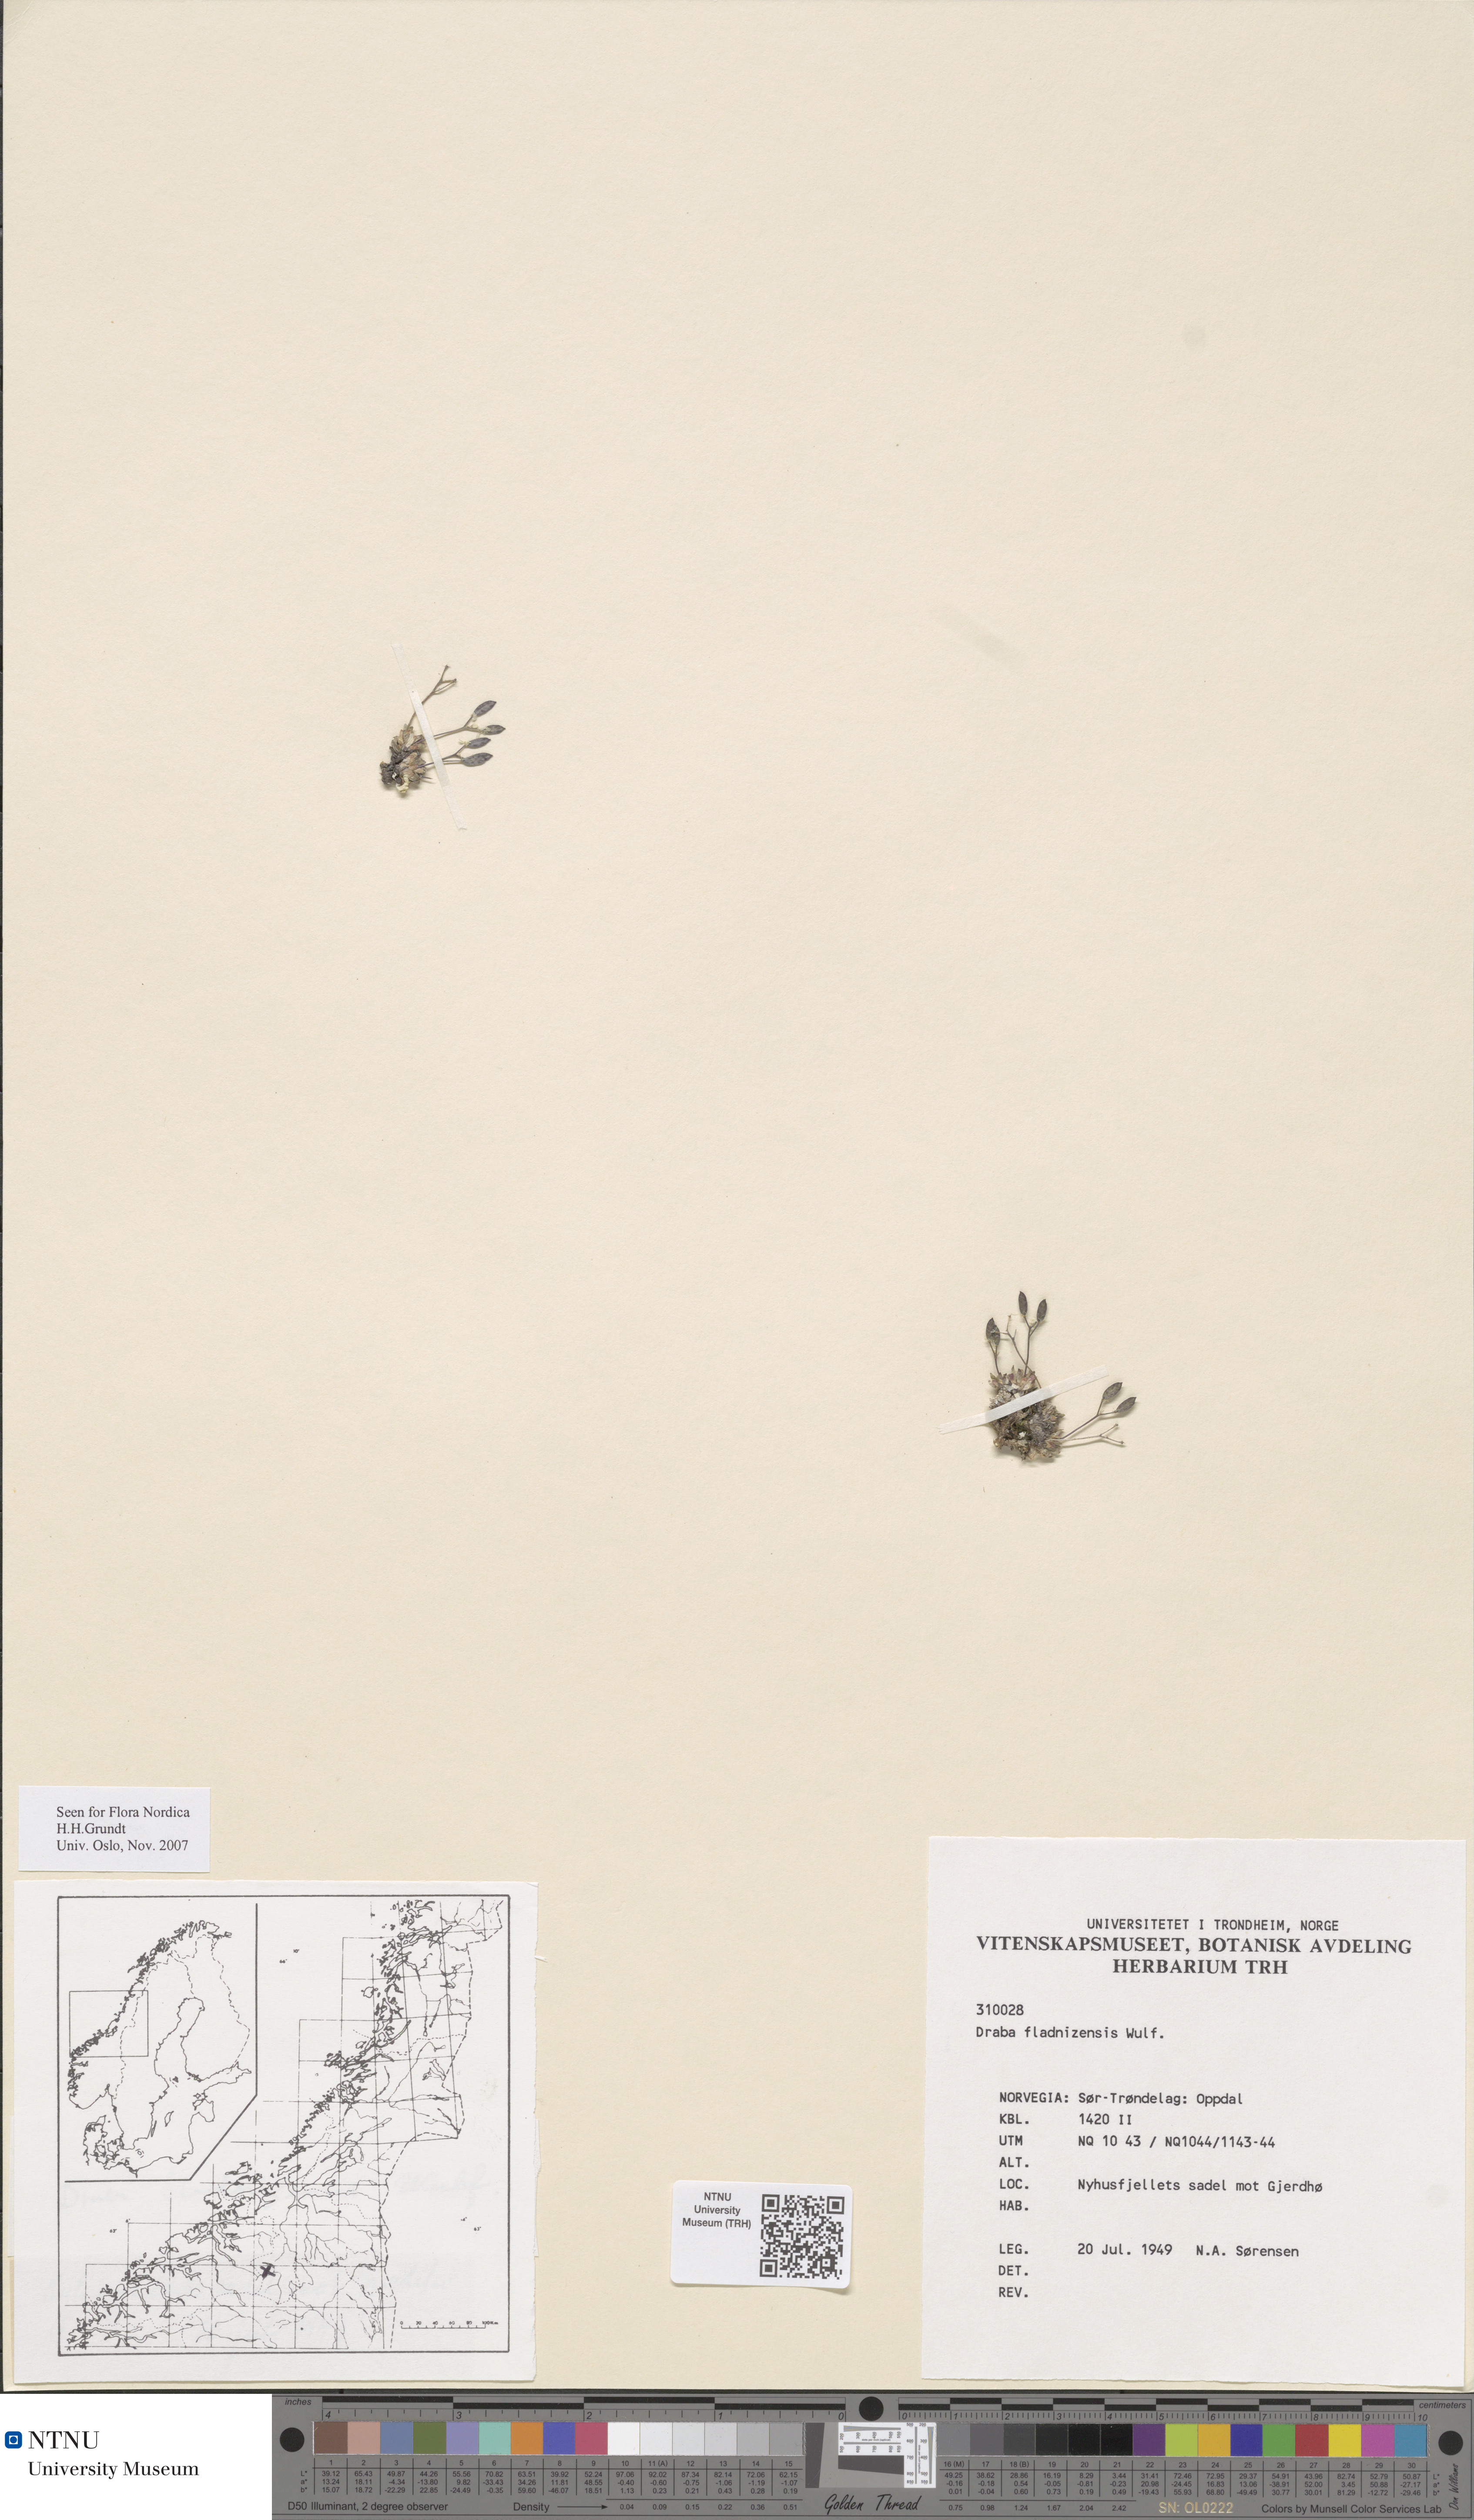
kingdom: Plantae
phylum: Tracheophyta
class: Magnoliopsida
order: Brassicales
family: Brassicaceae
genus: Draba
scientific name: Draba fladnizensis
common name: Austrian draba
